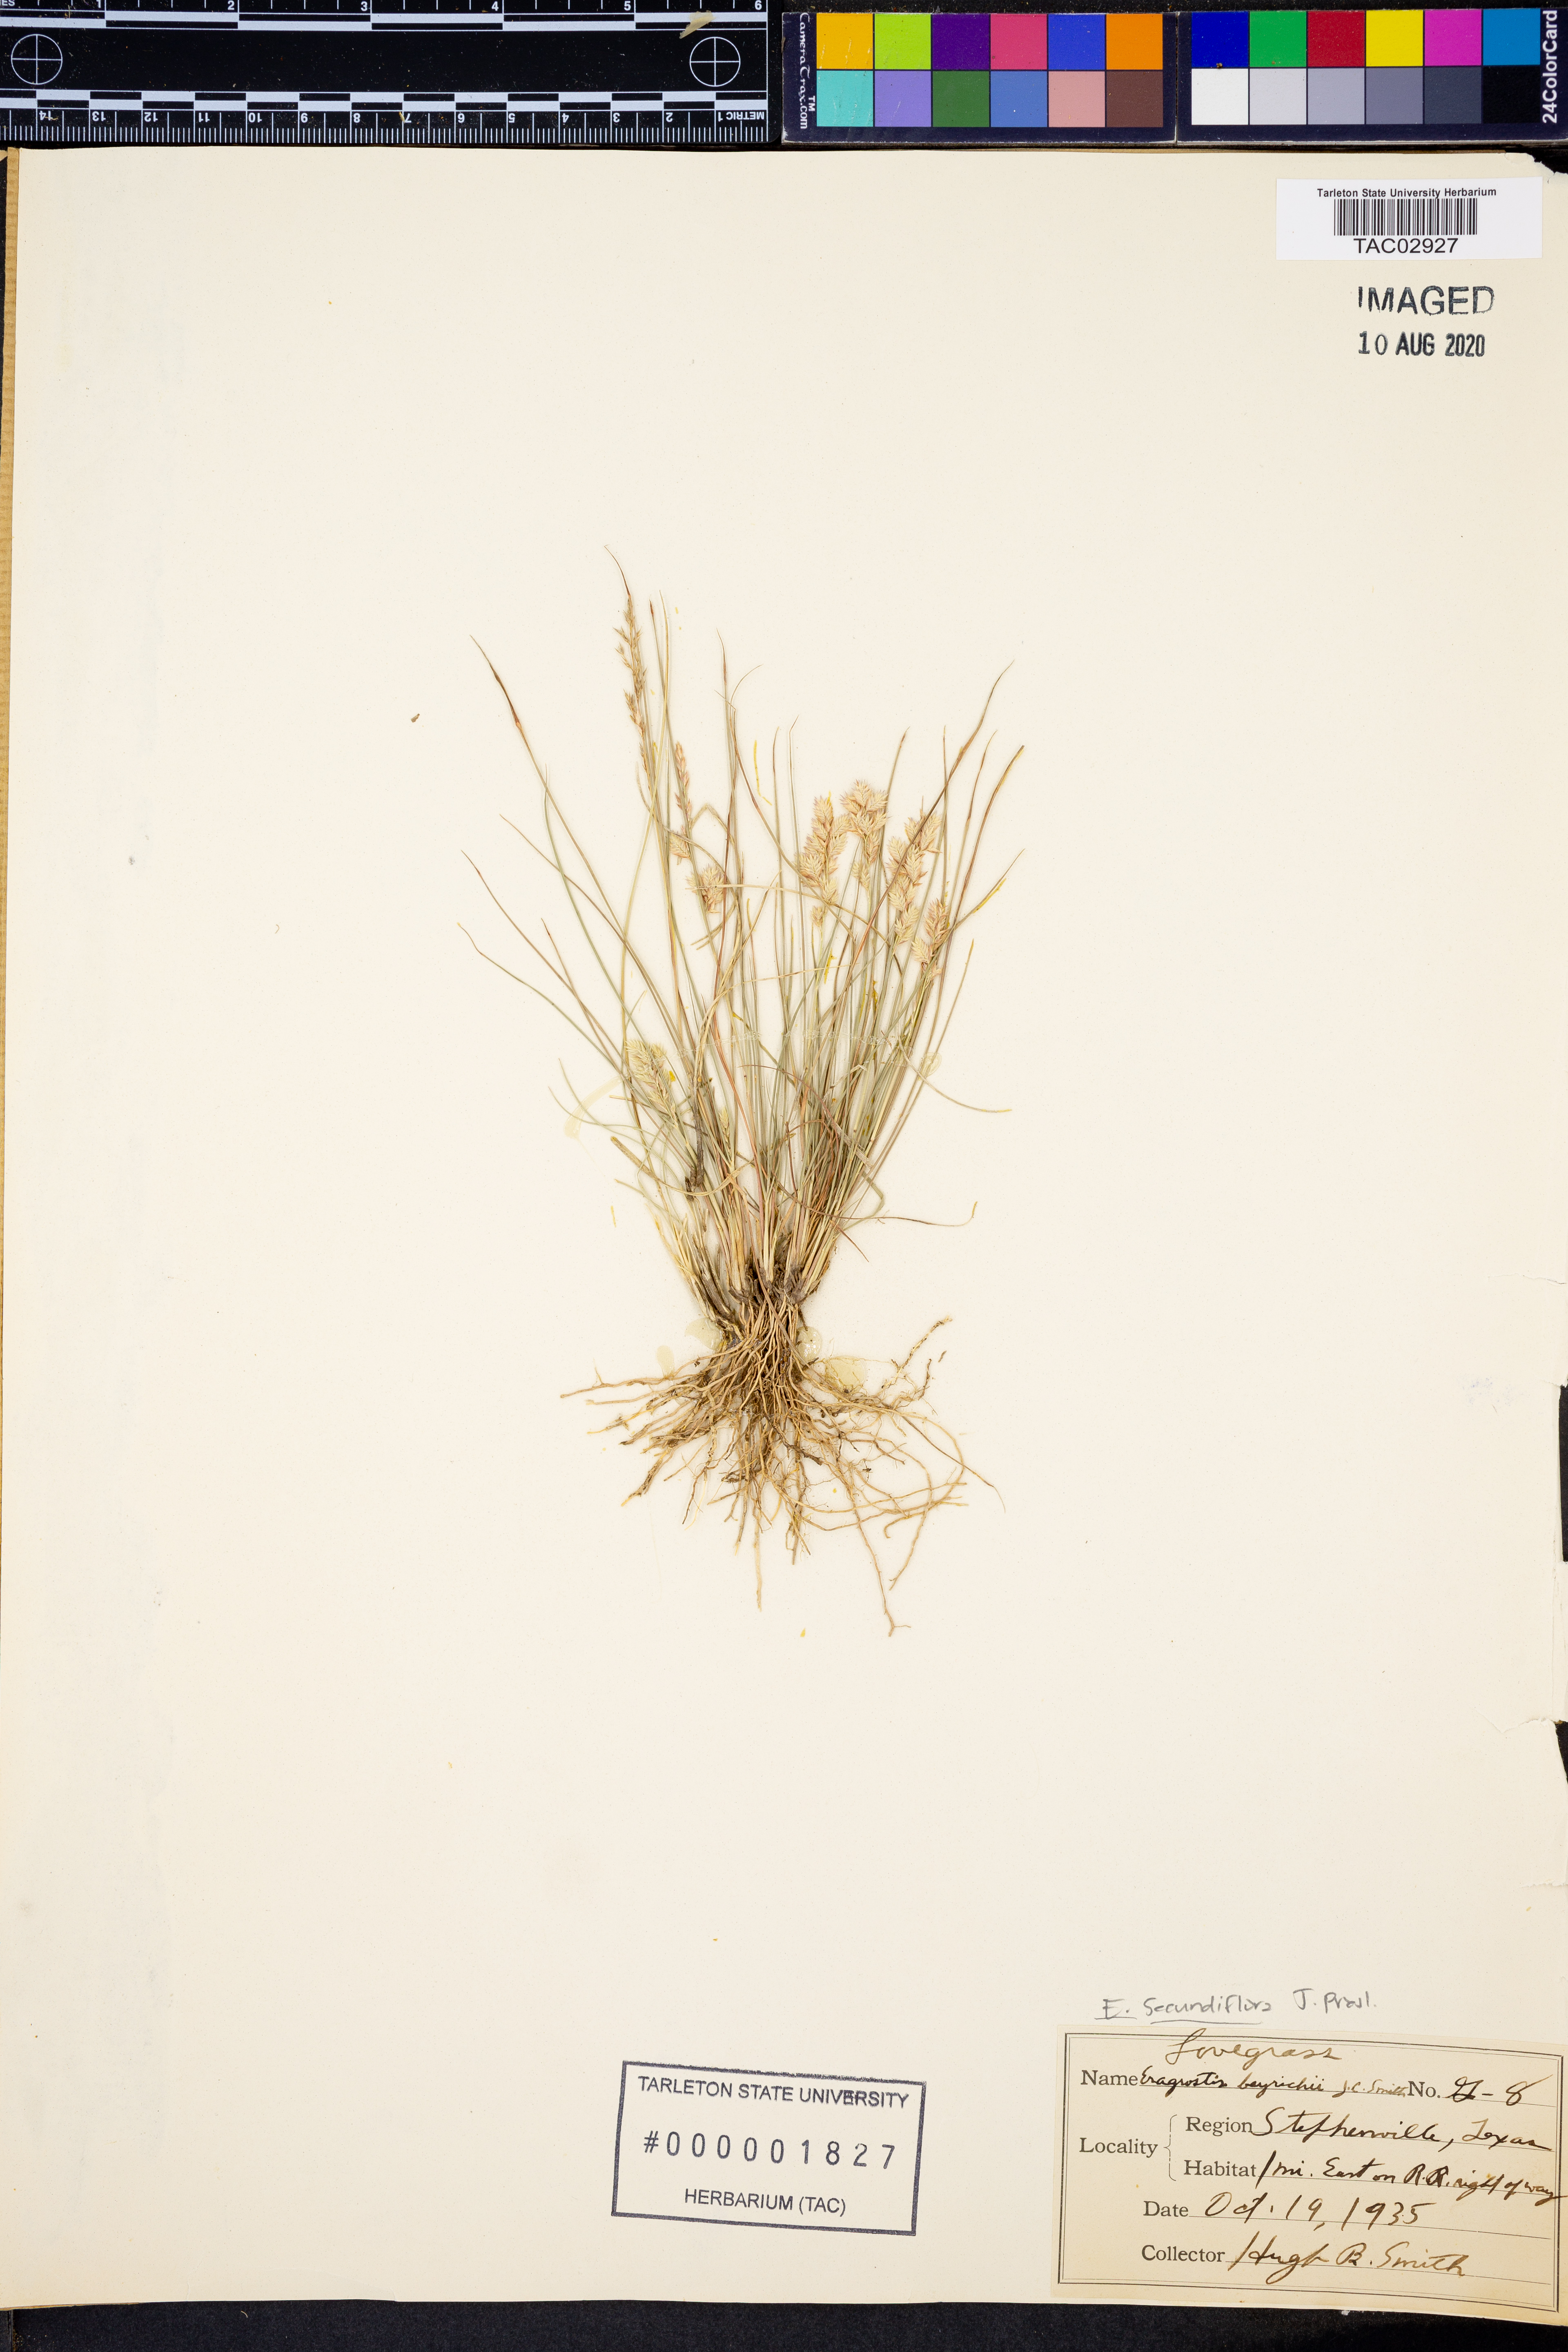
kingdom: Plantae
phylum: Tracheophyta
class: Liliopsida
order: Poales
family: Poaceae
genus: Eragrostis
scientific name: Eragrostis secundiflora
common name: Red love grass
